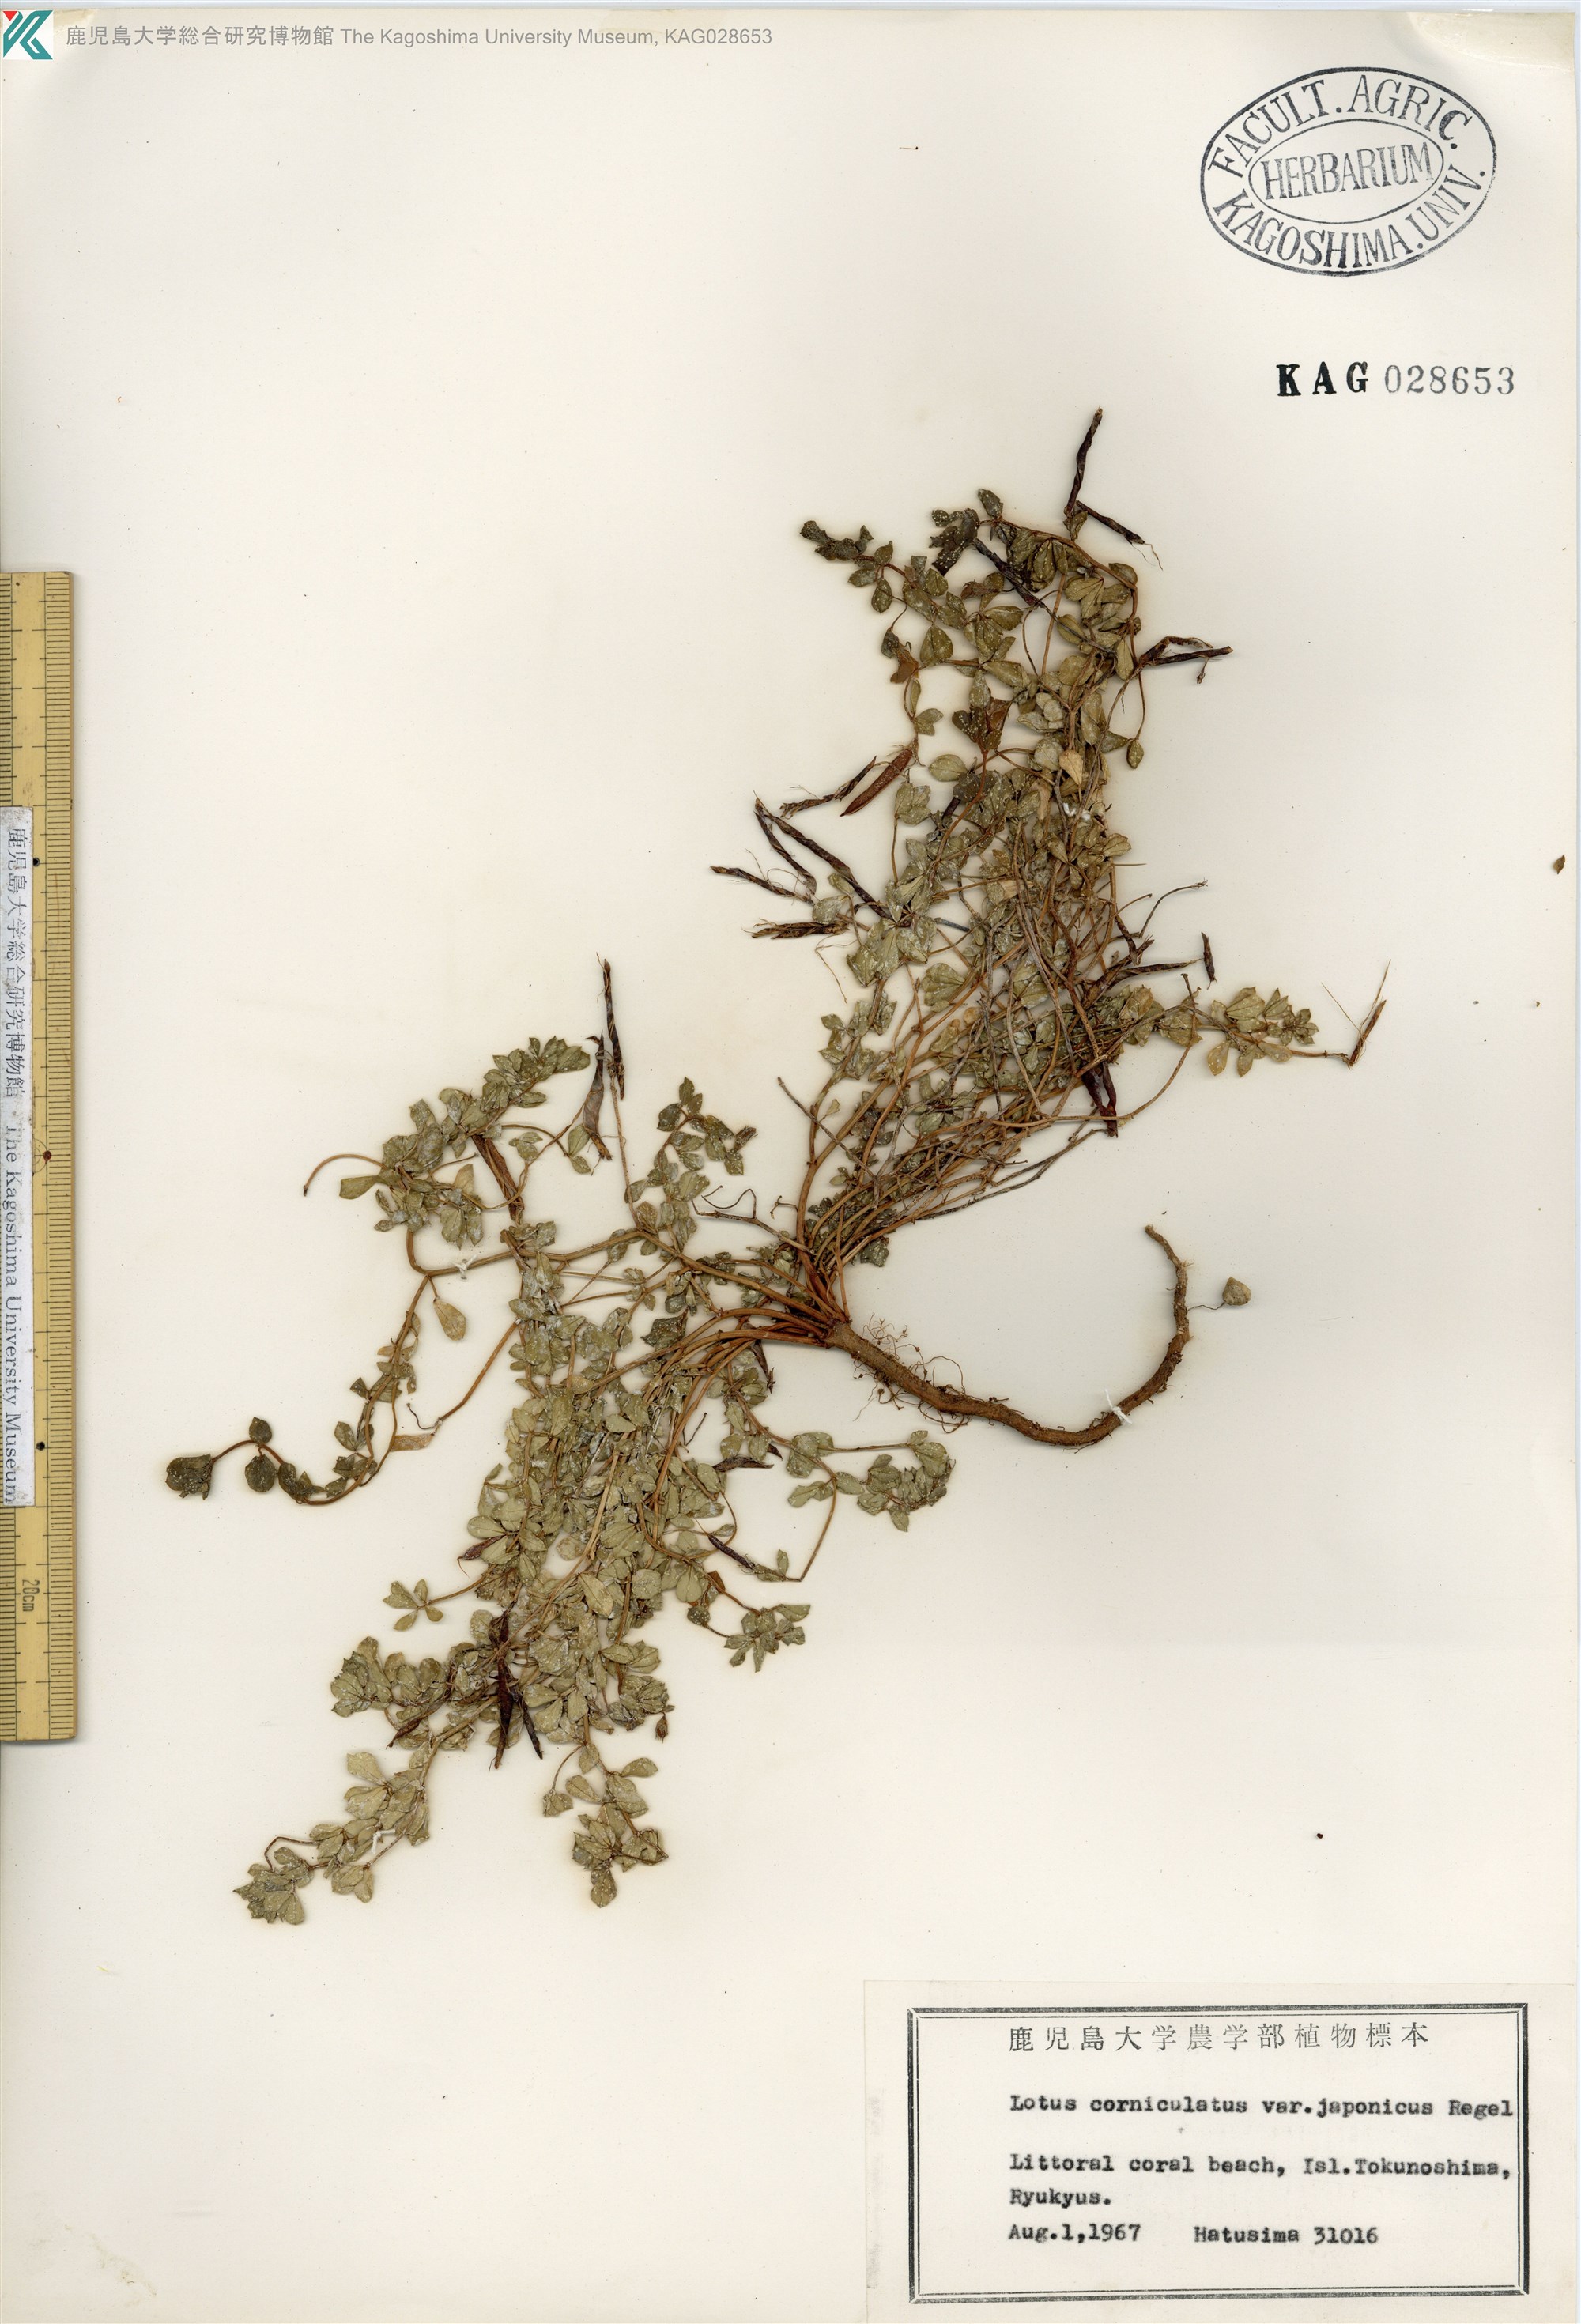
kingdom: Plantae
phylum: Tracheophyta
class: Magnoliopsida
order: Fabales
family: Fabaceae
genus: Lotus
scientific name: Lotus japonicus
